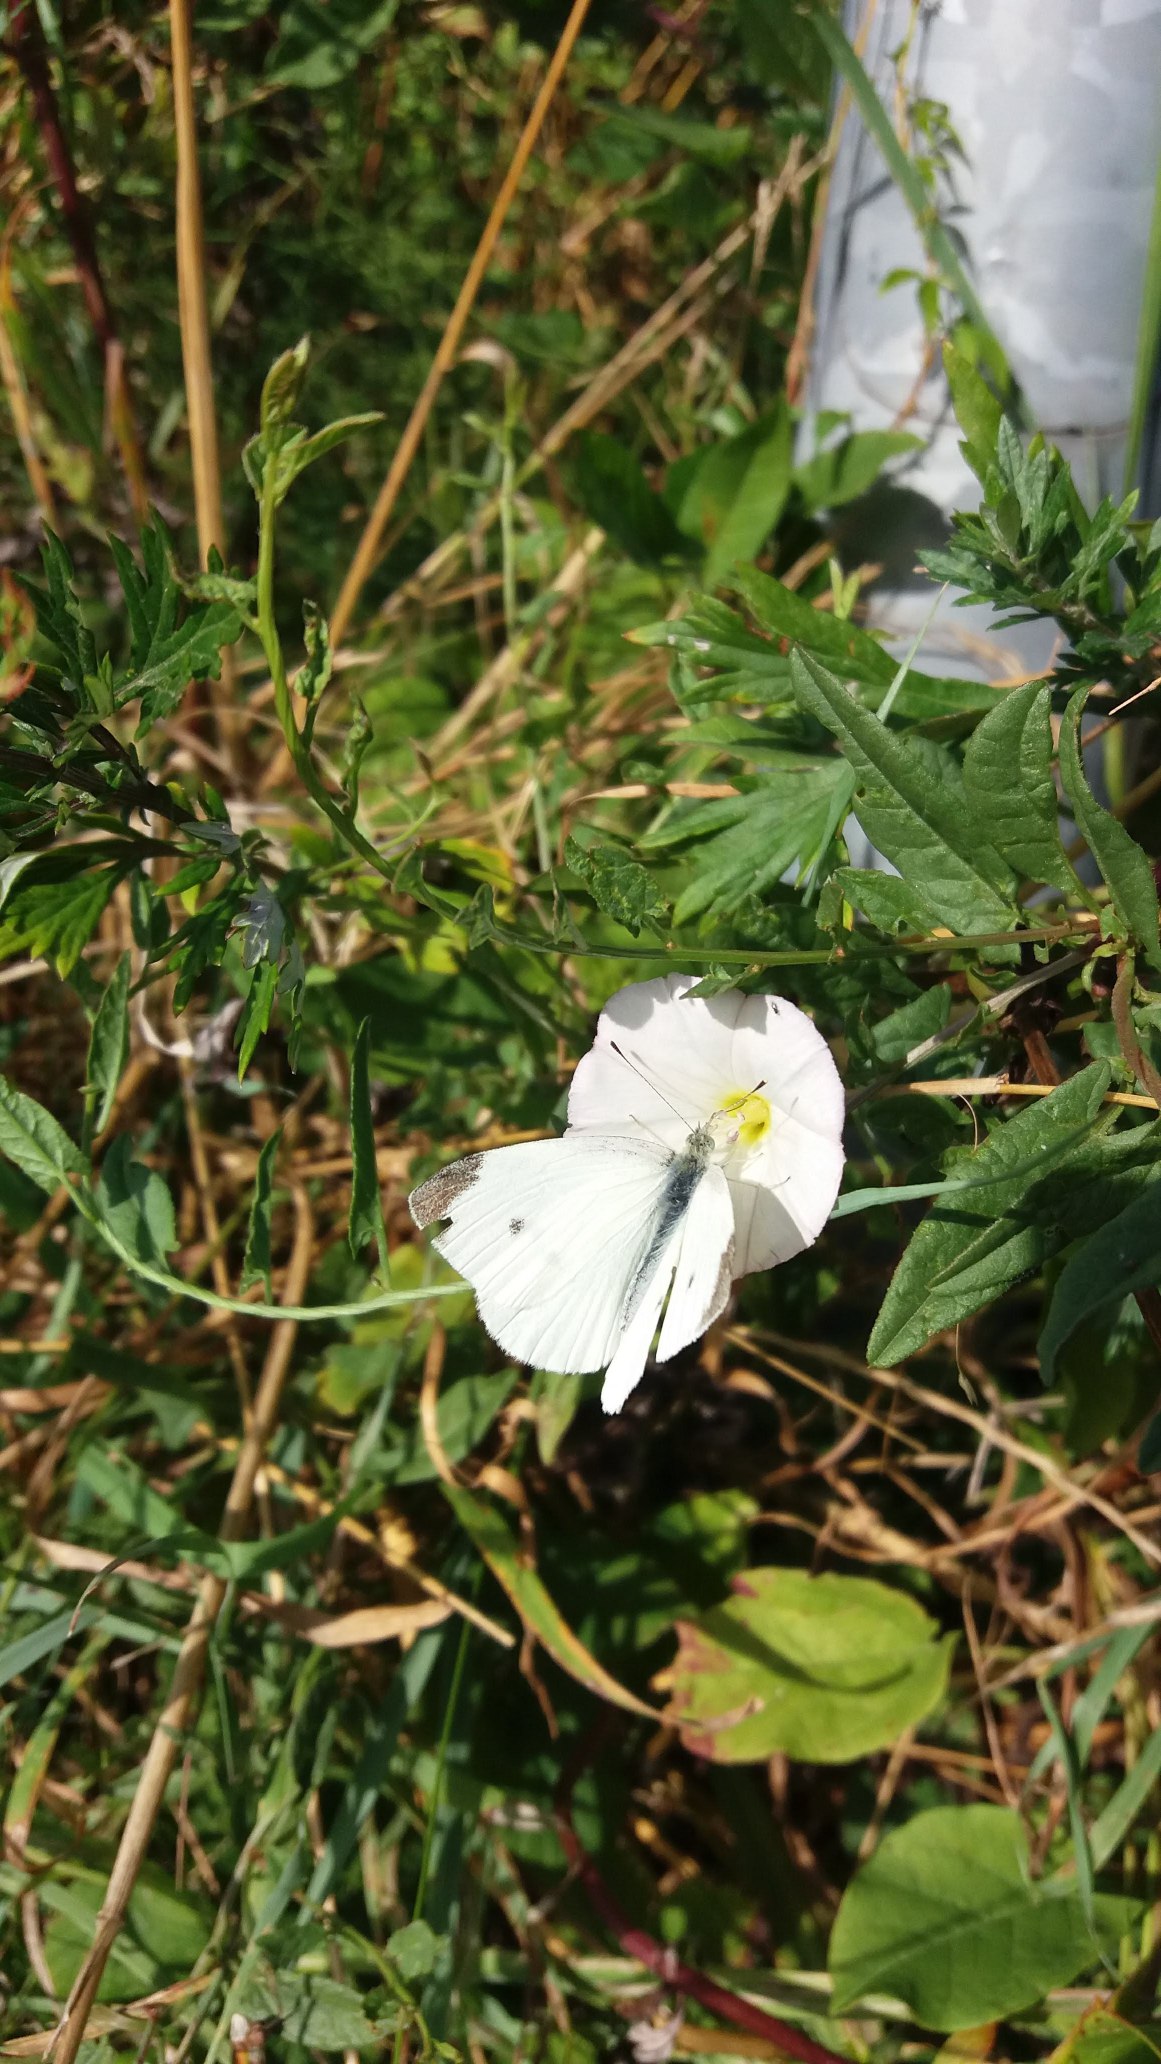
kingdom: Animalia
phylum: Arthropoda
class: Insecta
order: Lepidoptera
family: Pieridae
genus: Pieris
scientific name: Pieris rapae
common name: Lille kålsommerfugl
